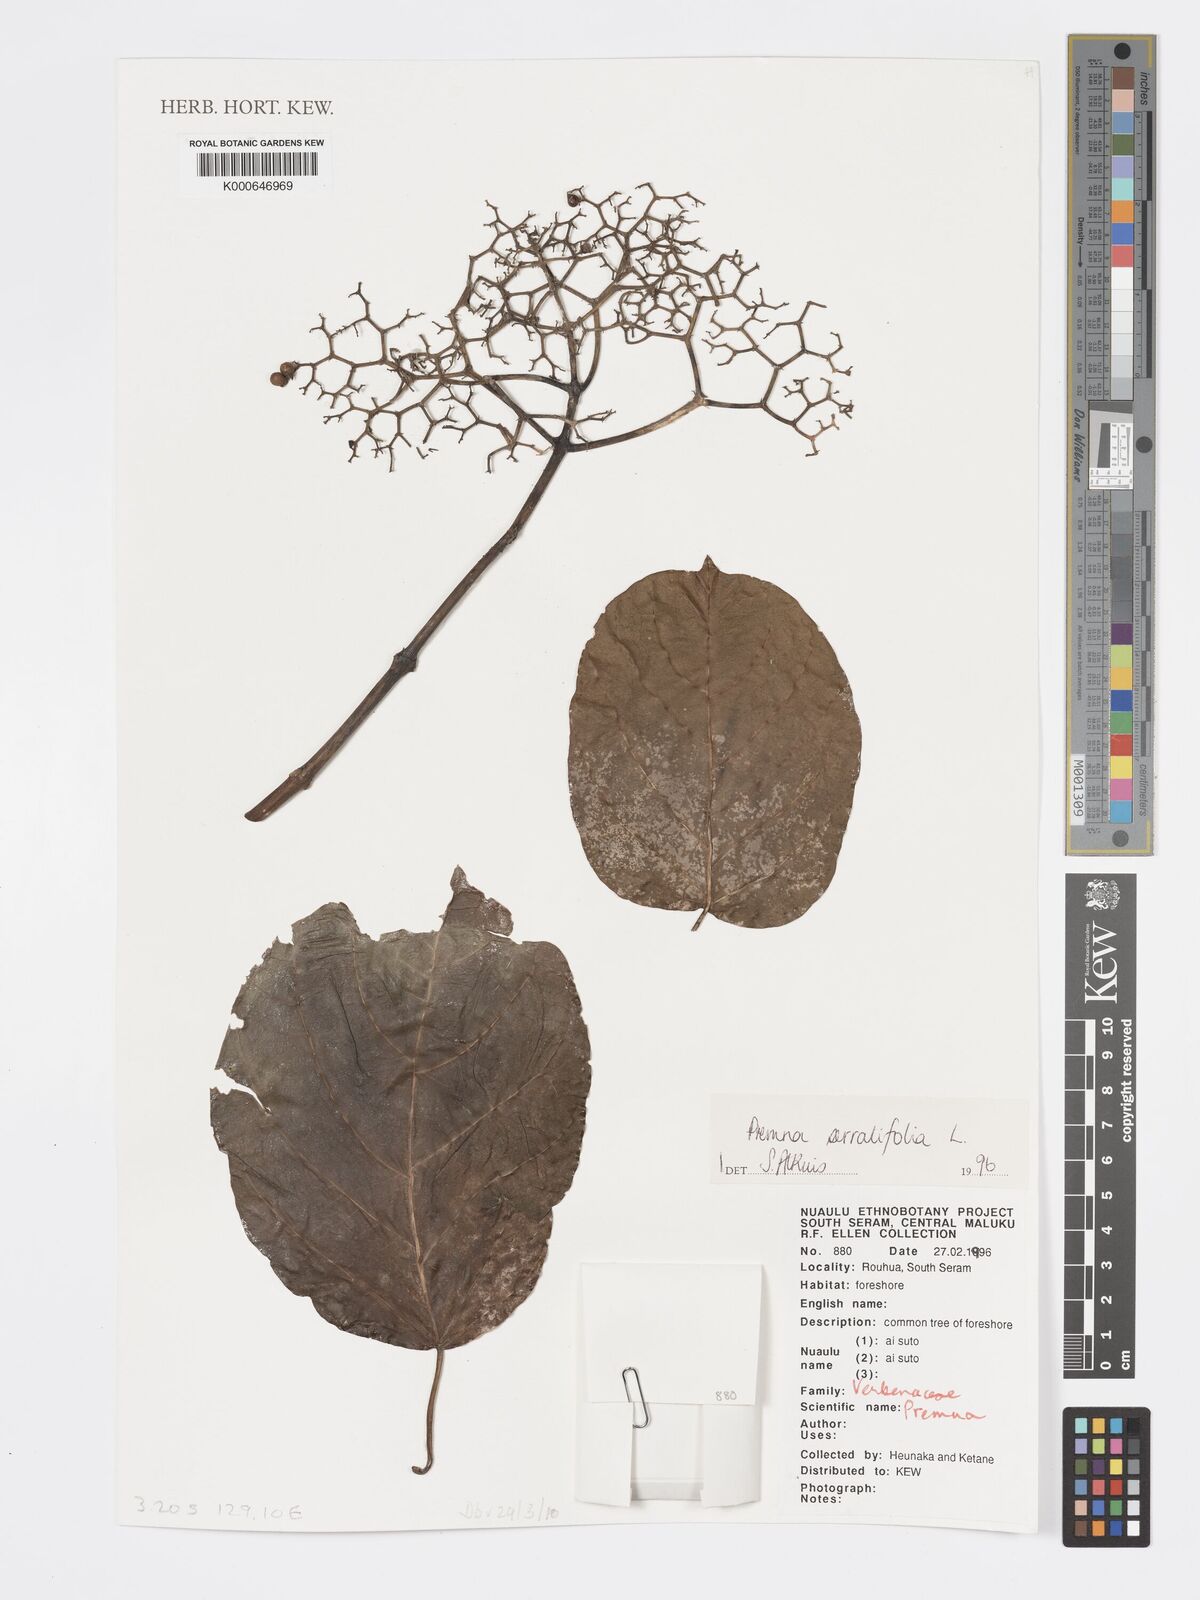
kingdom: Plantae
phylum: Tracheophyta
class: Magnoliopsida
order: Lamiales
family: Lamiaceae
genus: Premna
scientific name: Premna serratifolia
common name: Bastard guelder
